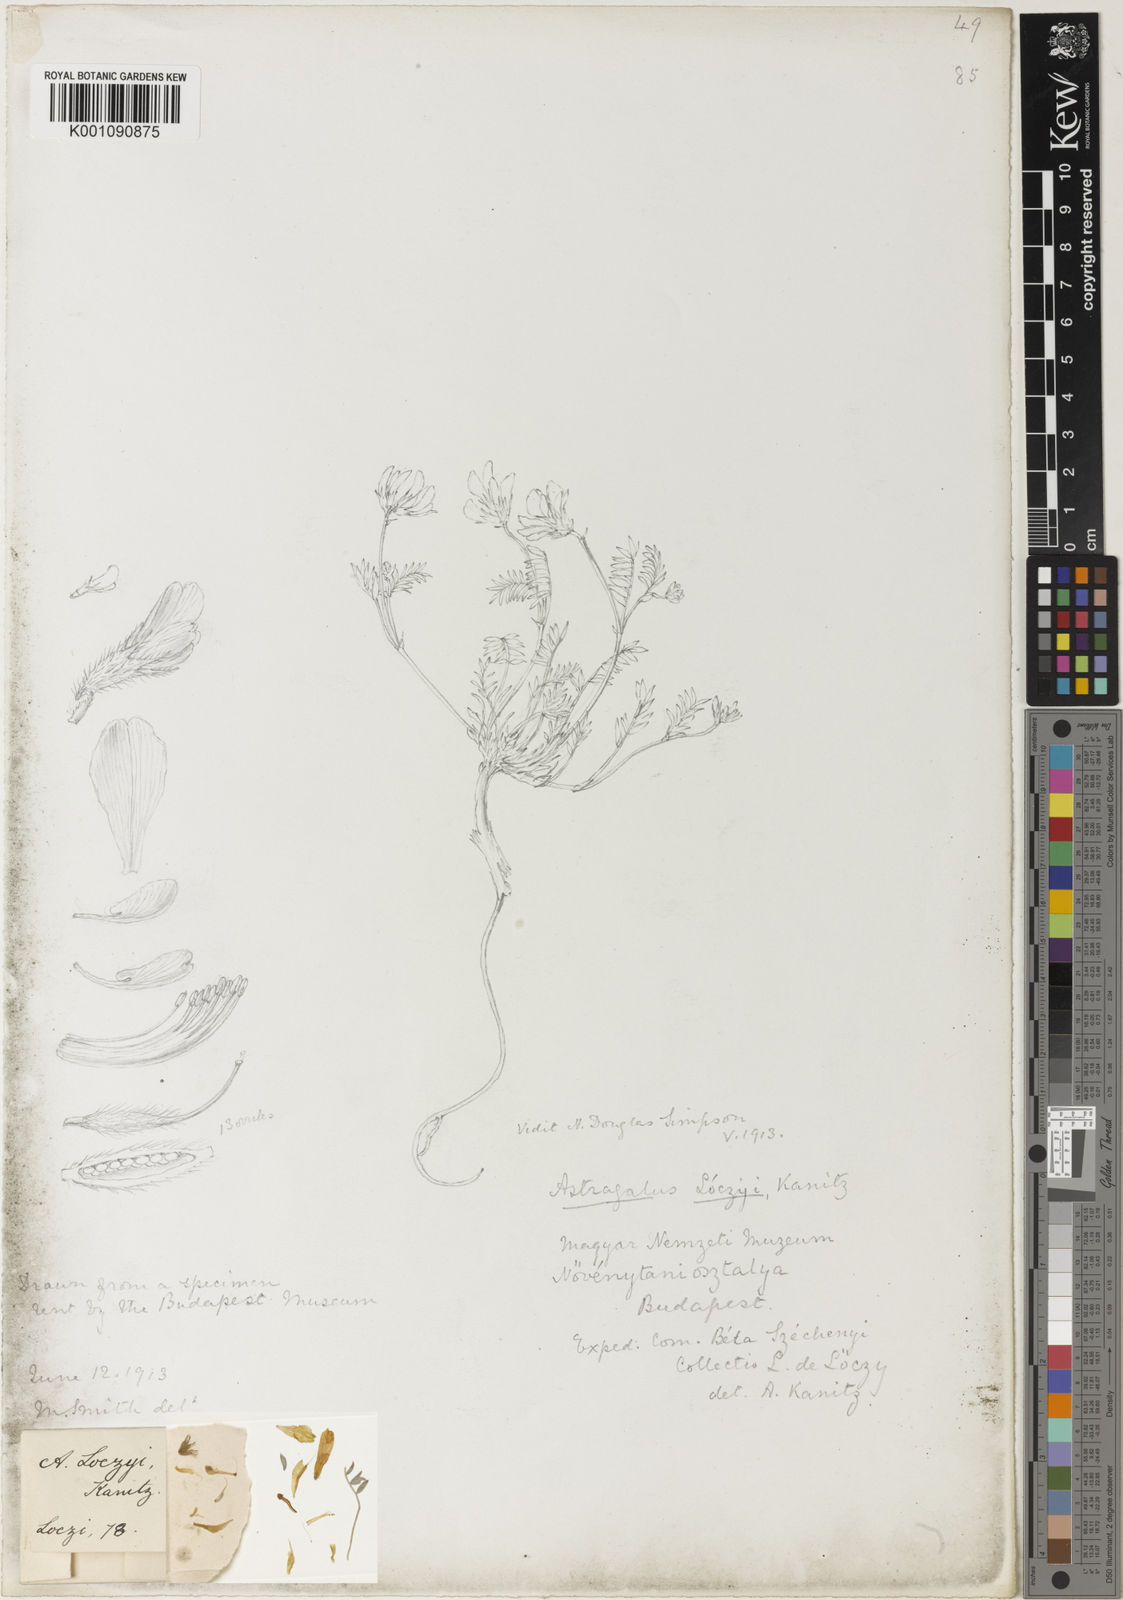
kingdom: Plantae
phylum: Tracheophyta
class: Magnoliopsida
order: Fabales
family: Fabaceae
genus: Astragalus
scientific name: Astragalus
